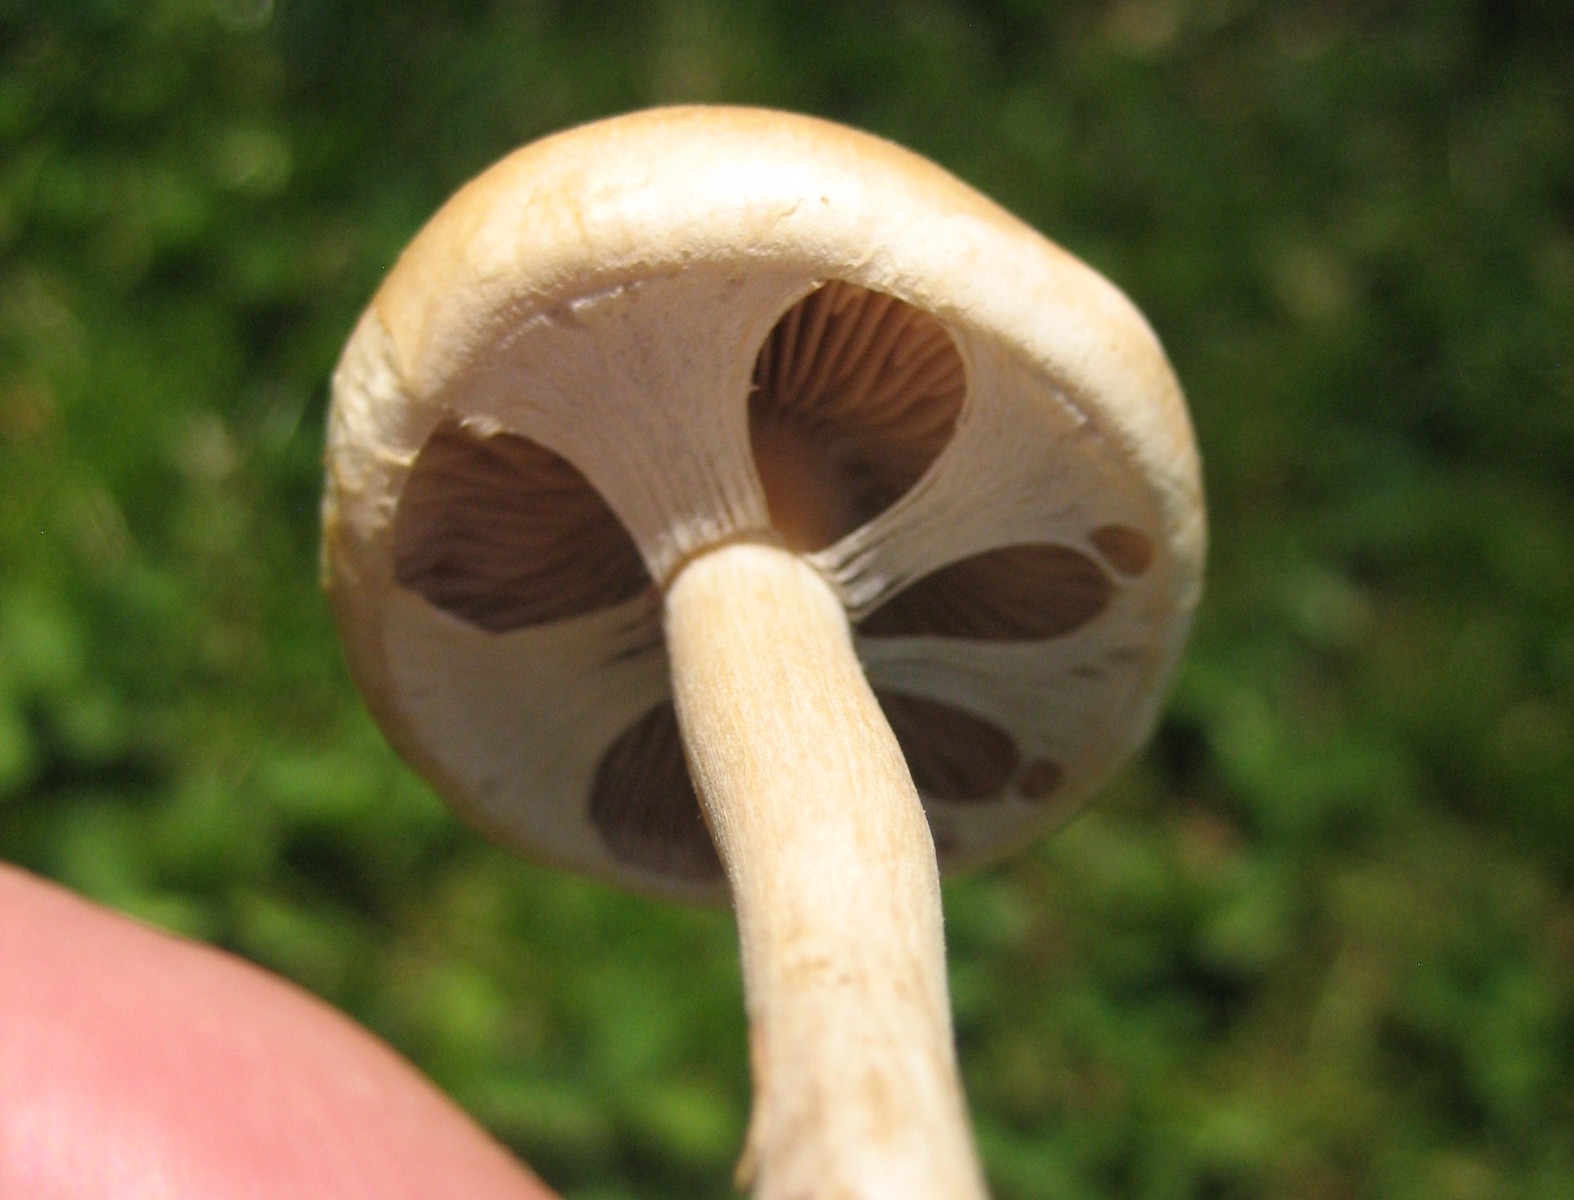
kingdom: Fungi
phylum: Basidiomycota
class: Agaricomycetes
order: Agaricales
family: Strophariaceae
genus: Agrocybe
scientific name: Agrocybe praecox
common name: tidlig agerhat
